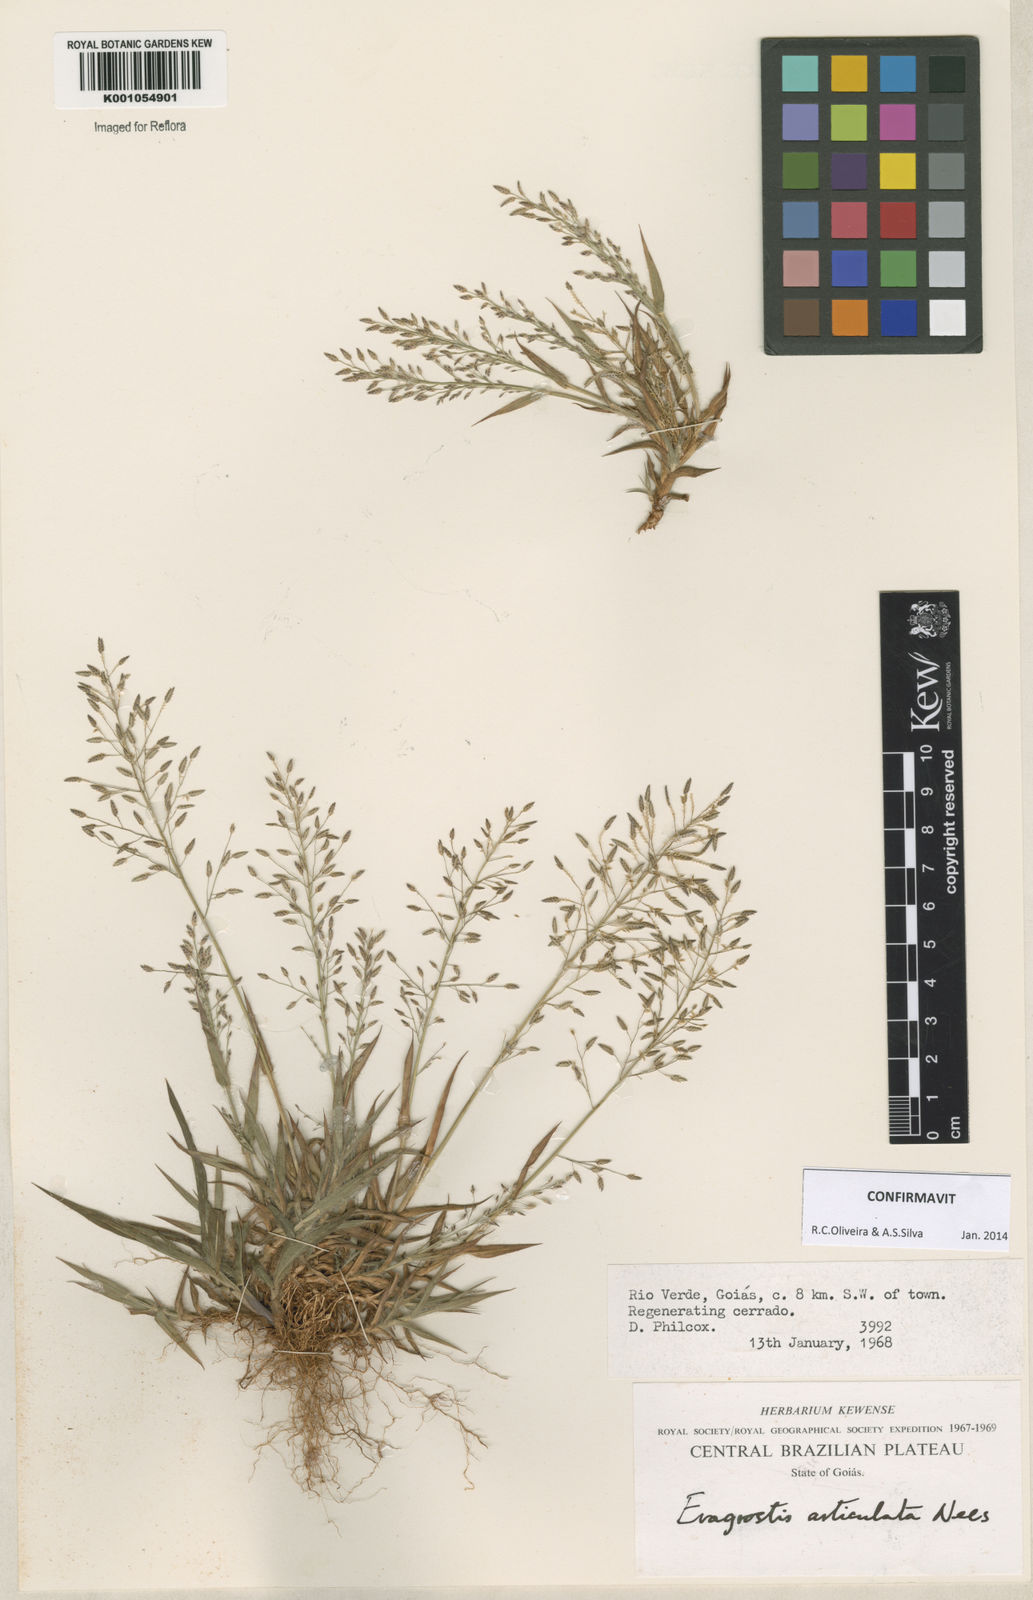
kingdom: Plantae
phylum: Tracheophyta
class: Liliopsida
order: Poales
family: Poaceae
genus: Eragrostis
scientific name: Eragrostis articulata
